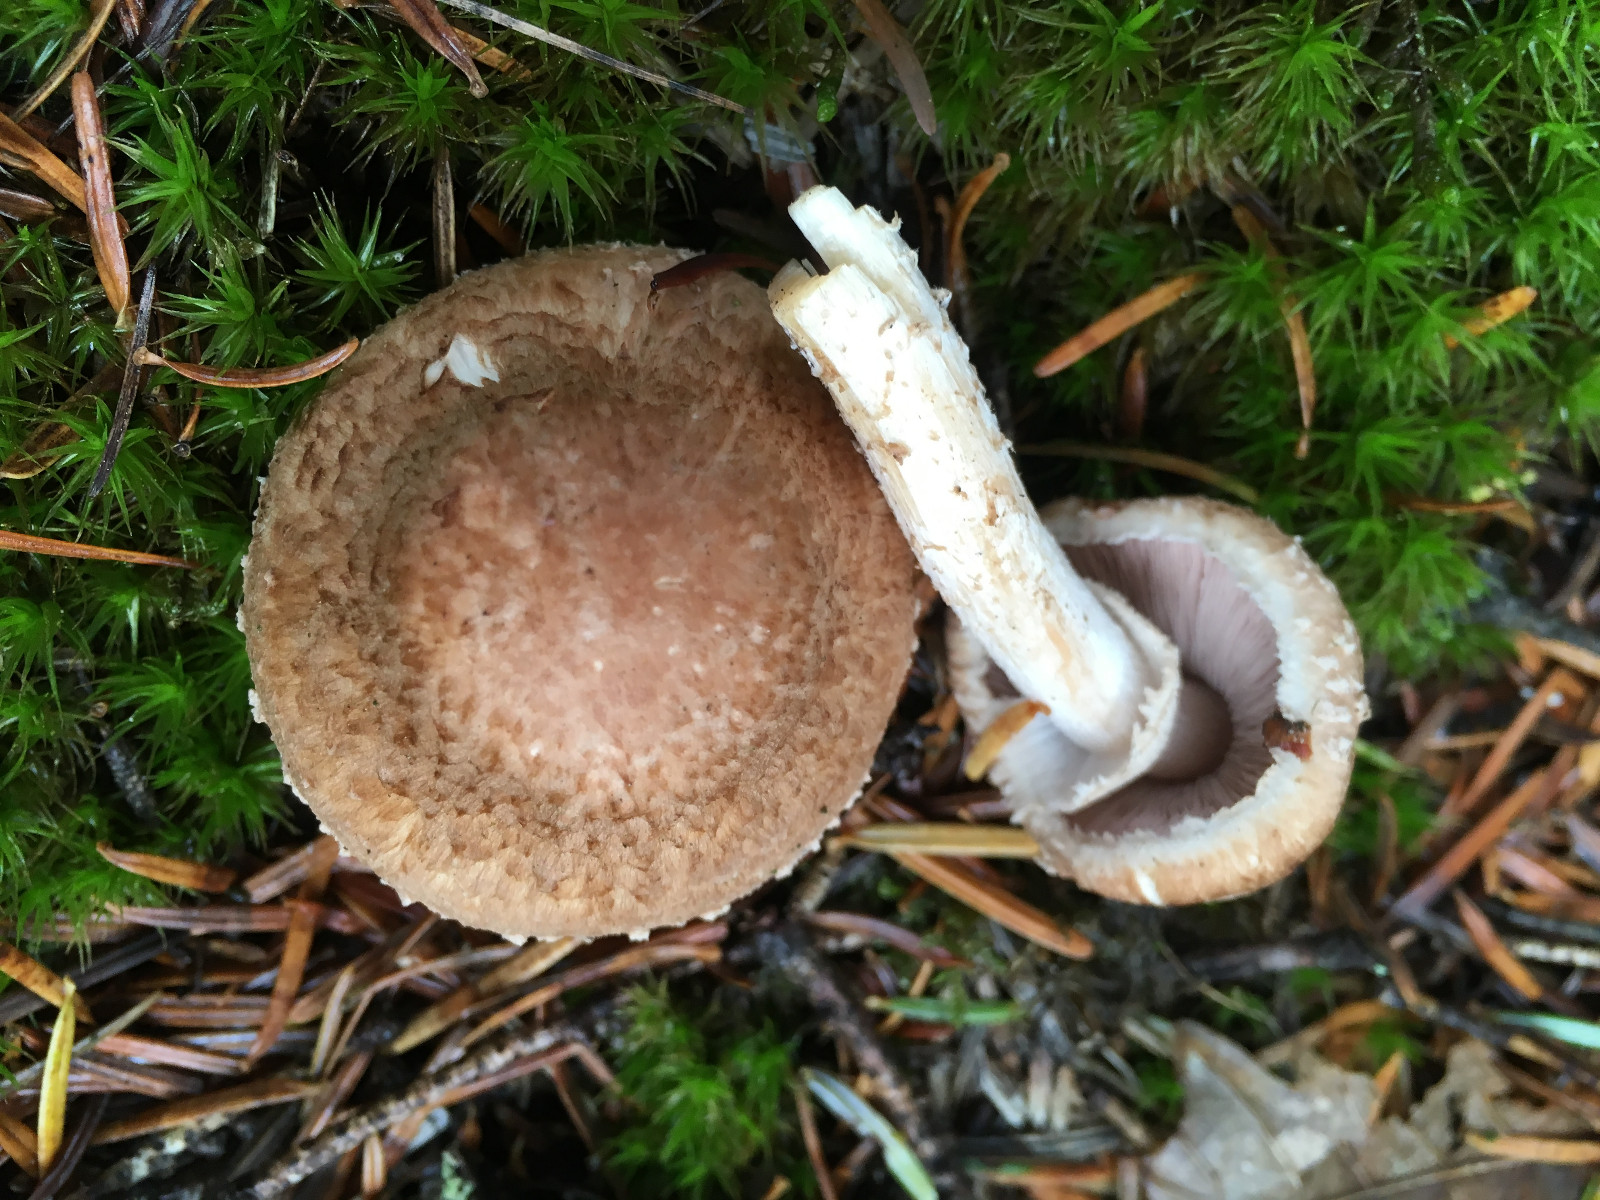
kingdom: Fungi
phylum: Basidiomycota
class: Agaricomycetes
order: Agaricales
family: Agaricaceae
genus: Agaricus
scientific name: Agaricus sylvaticus
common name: lille blod-champignon
